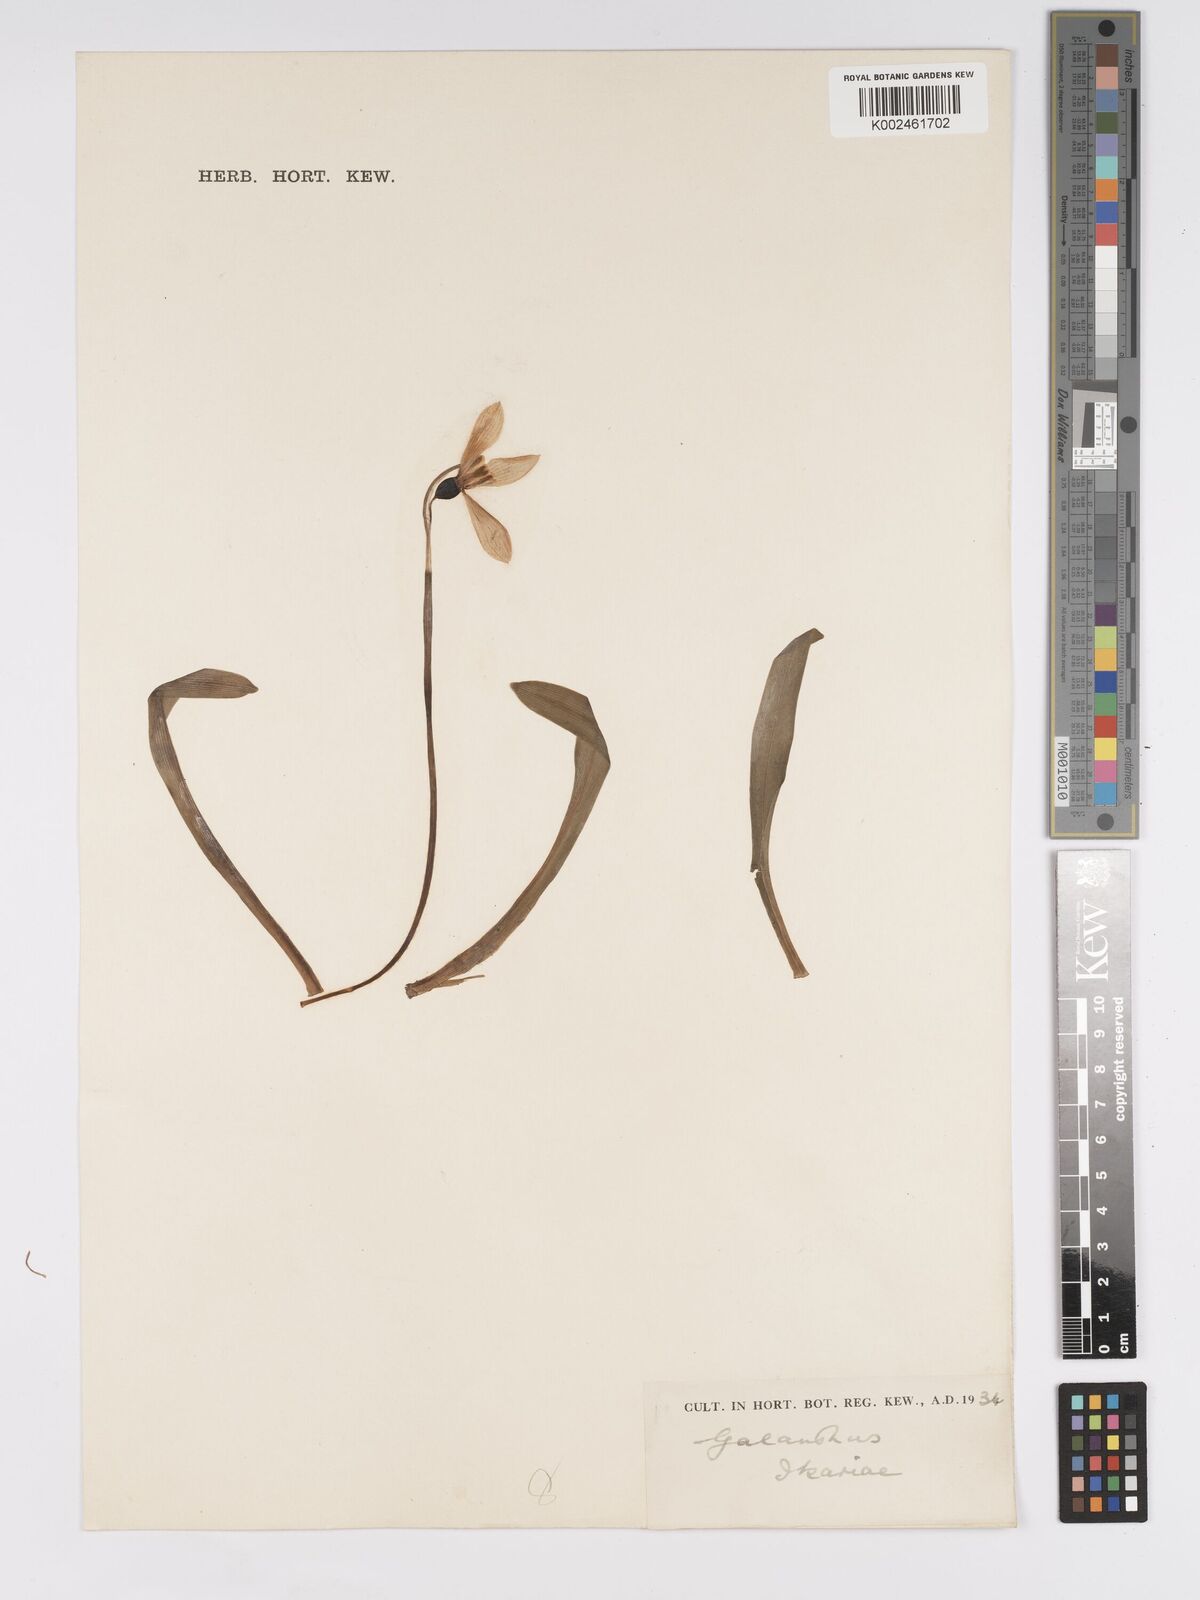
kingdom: Plantae
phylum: Tracheophyta
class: Liliopsida
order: Asparagales
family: Amaryllidaceae
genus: Galanthus
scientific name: Galanthus ikariae
